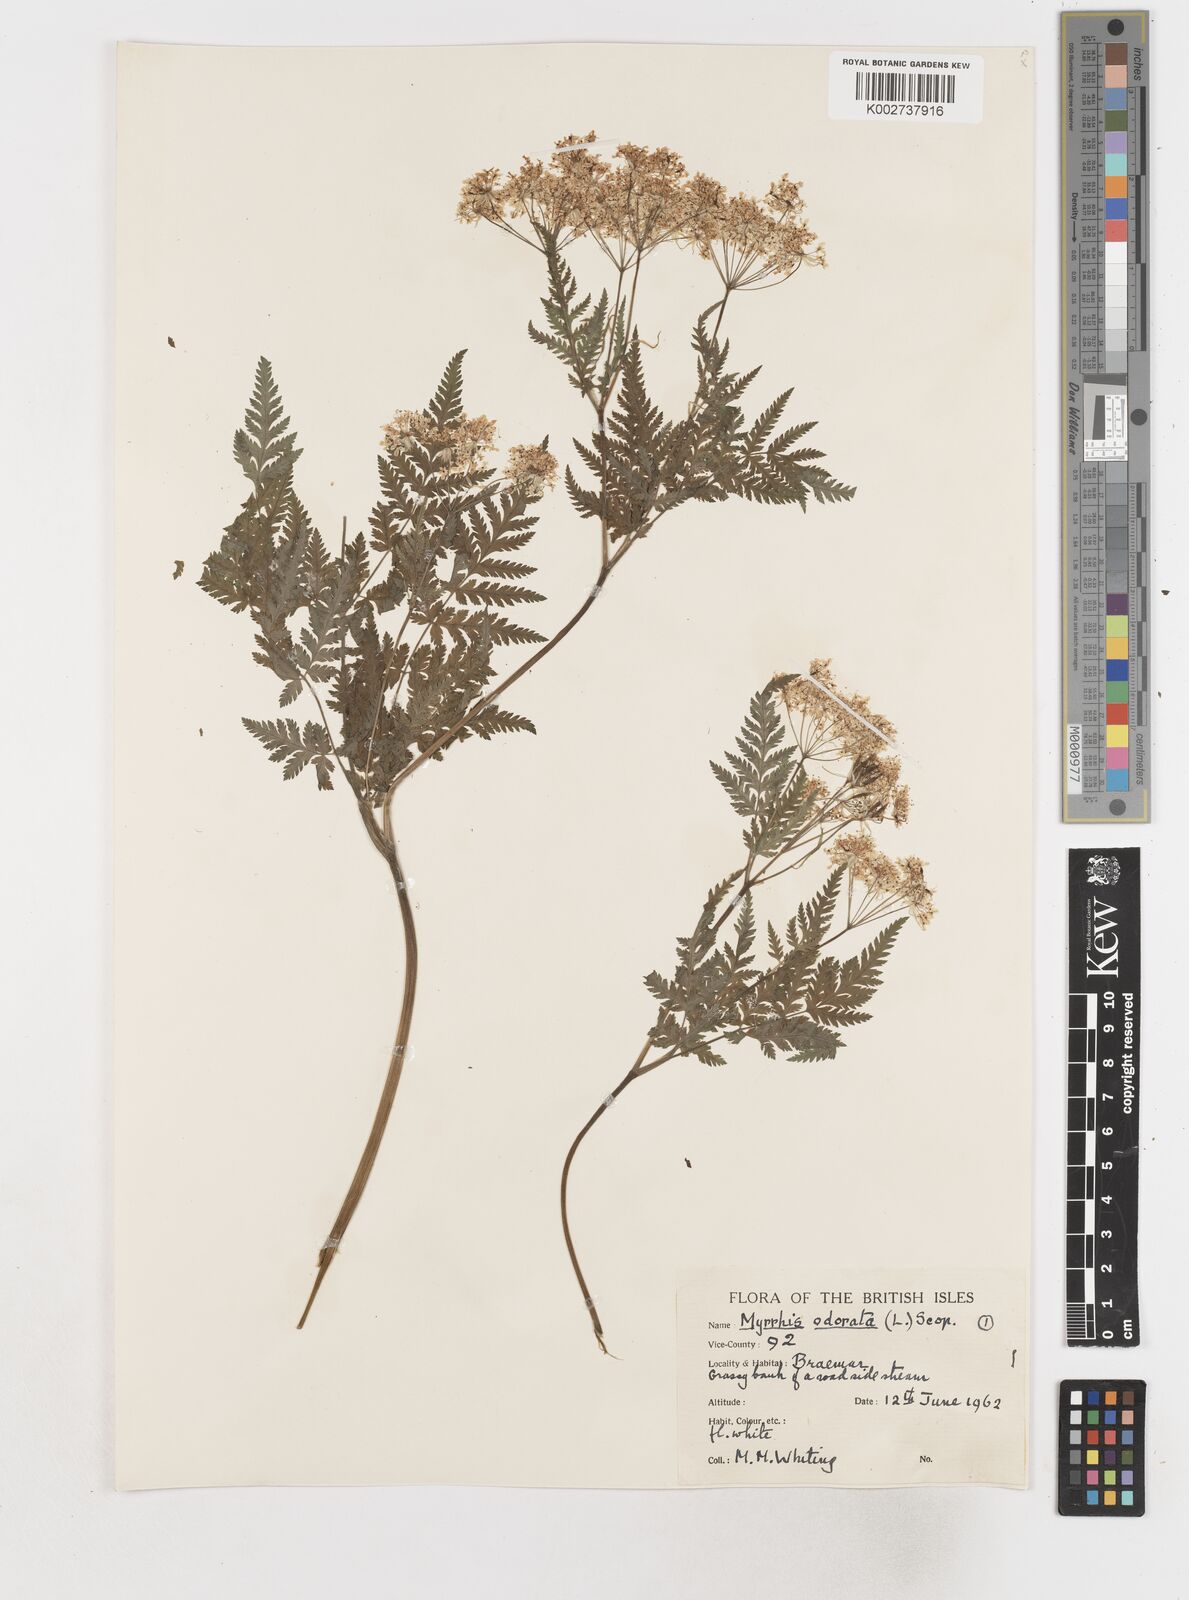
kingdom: Plantae
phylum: Tracheophyta
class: Magnoliopsida
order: Apiales
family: Apiaceae
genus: Myrrhis
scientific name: Myrrhis odorata
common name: Sweet cicely
